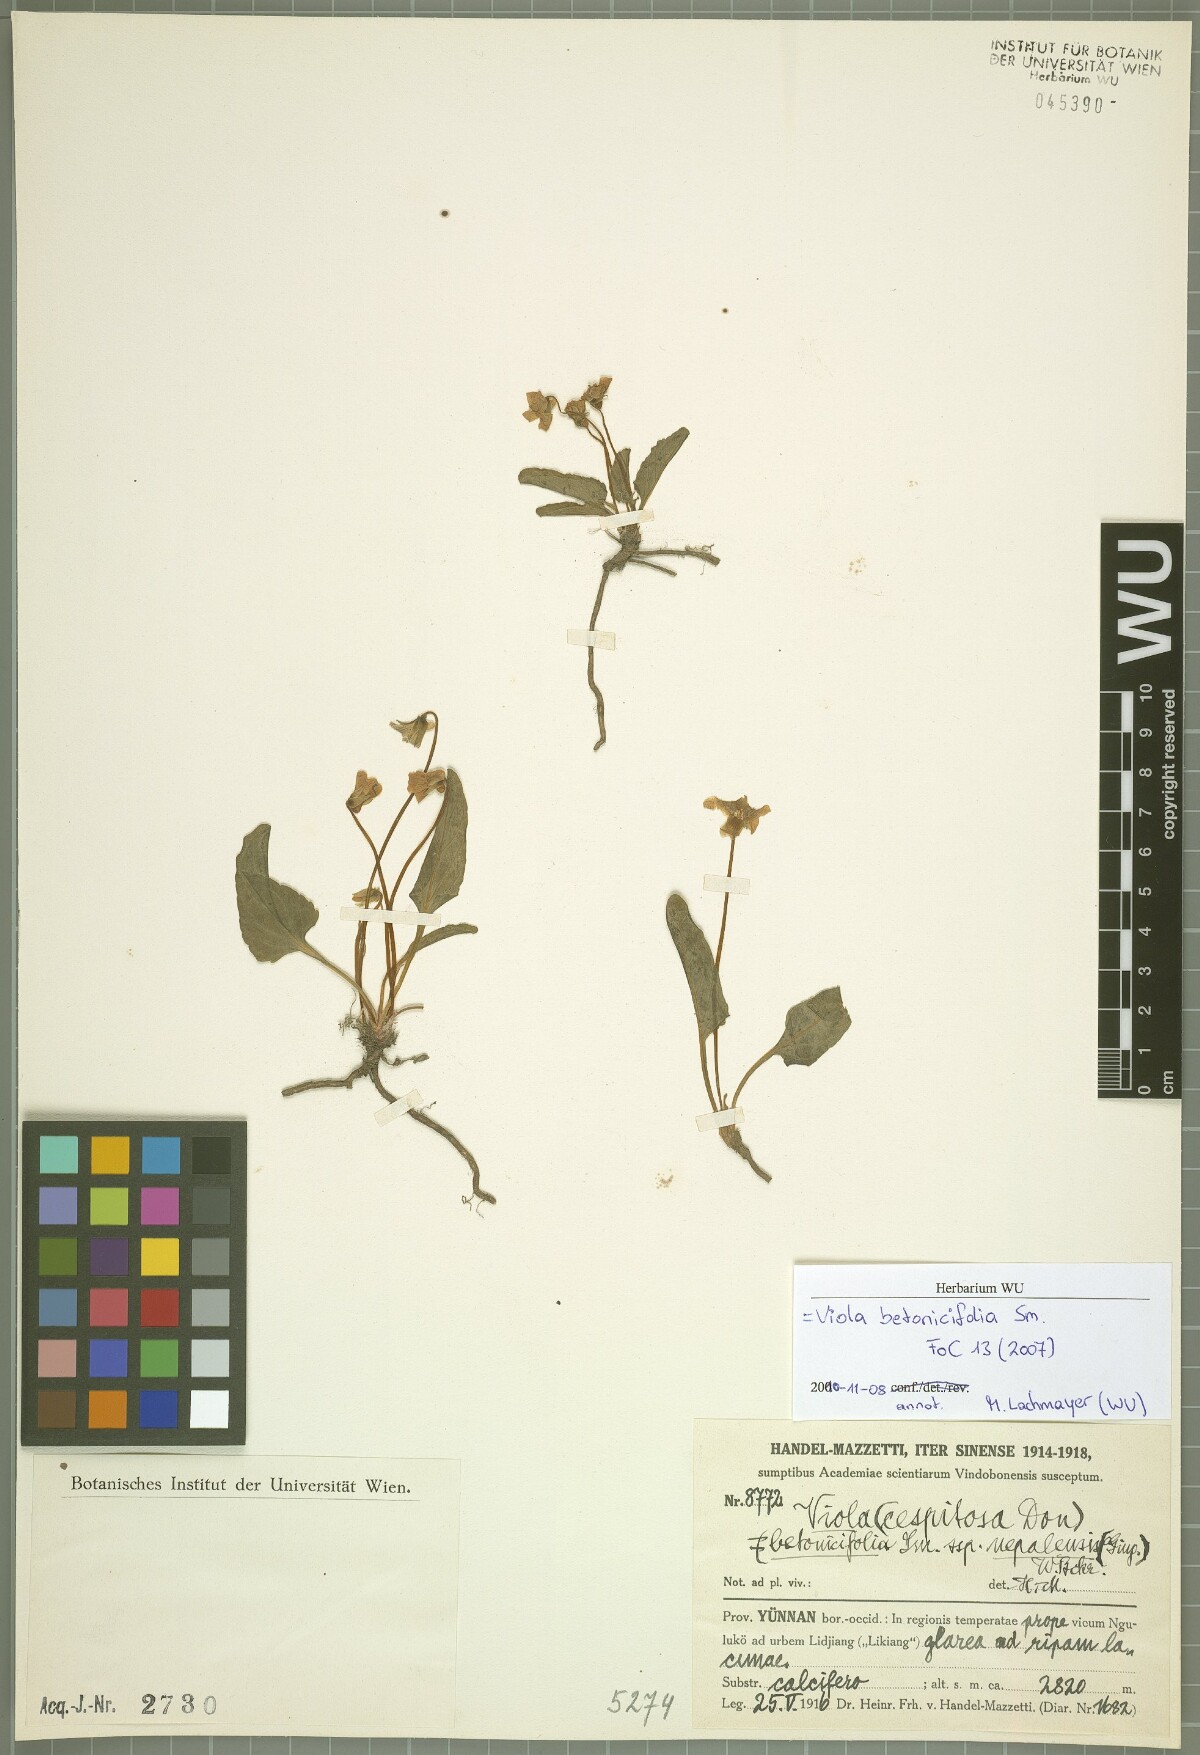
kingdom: Plantae
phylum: Tracheophyta
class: Magnoliopsida
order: Malpighiales
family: Violaceae
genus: Viola
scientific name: Viola betonicifolia
